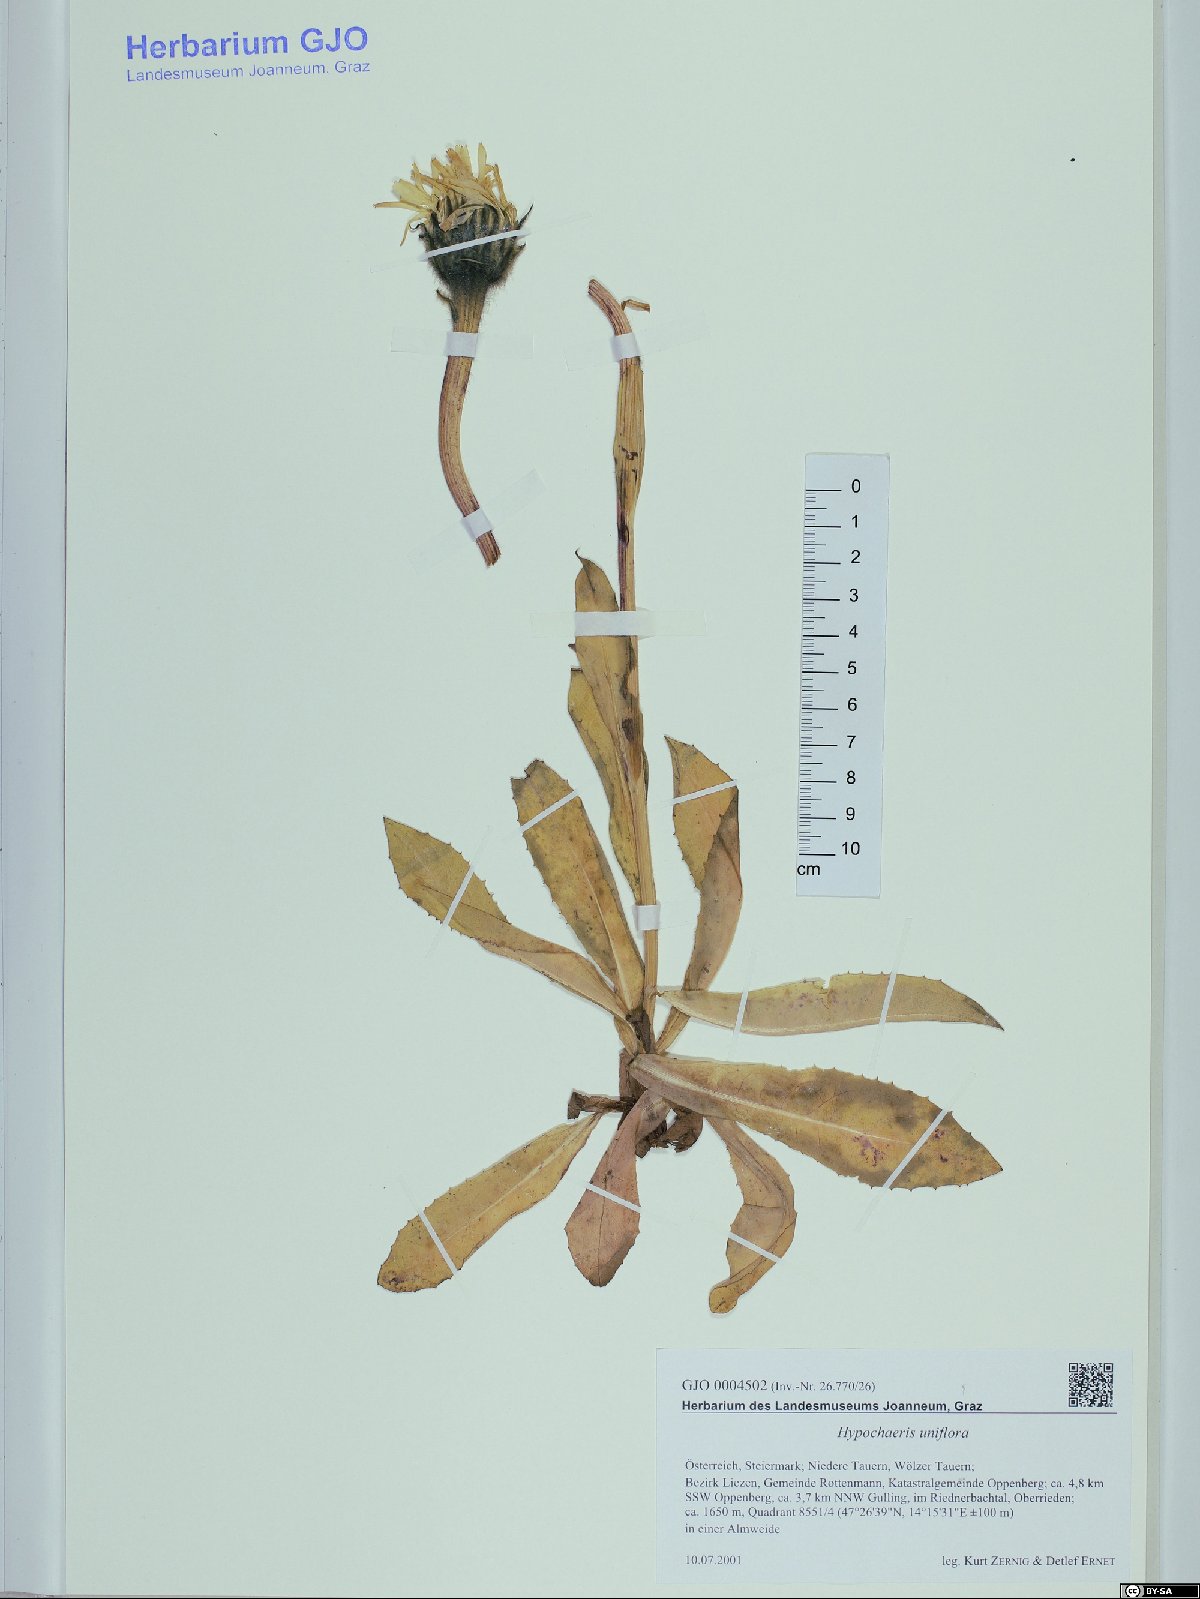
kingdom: Plantae
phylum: Tracheophyta
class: Magnoliopsida
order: Asterales
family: Asteraceae
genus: Trommsdorffia
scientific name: Trommsdorffia uniflora
